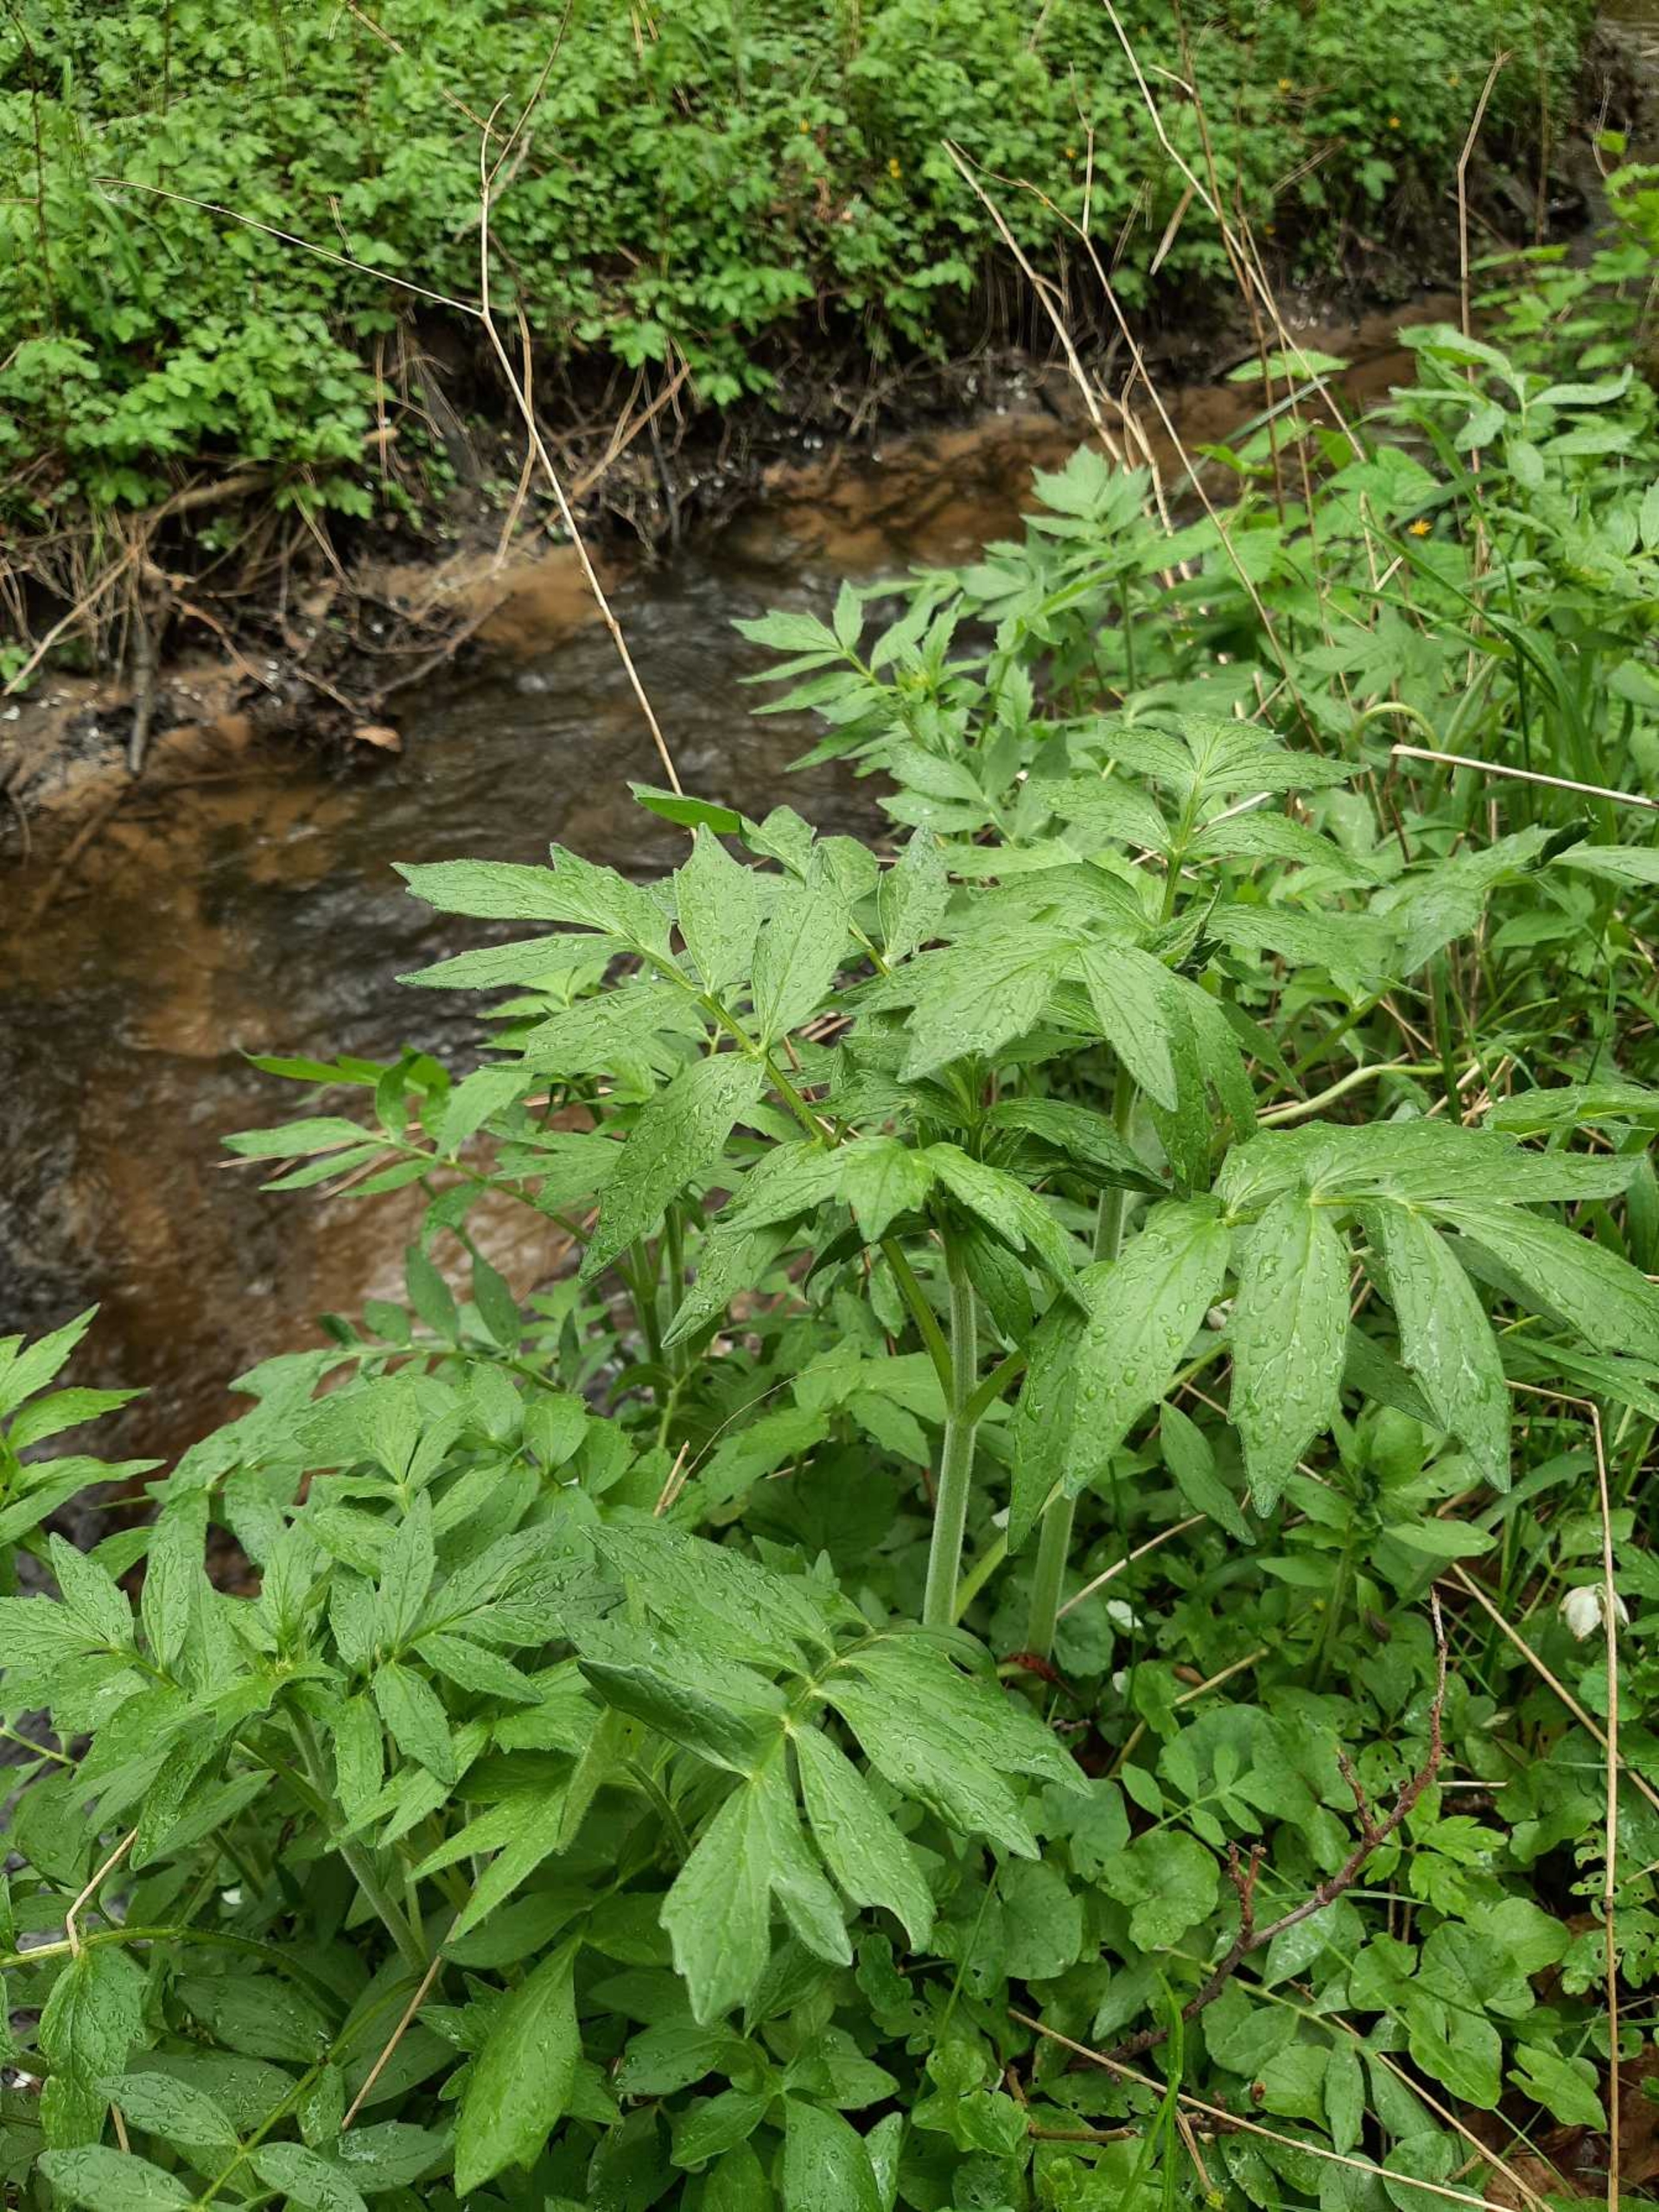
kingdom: Plantae
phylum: Tracheophyta
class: Magnoliopsida
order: Dipsacales
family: Caprifoliaceae
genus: Valeriana
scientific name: Valeriana excelsa
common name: Krybende baldrian
